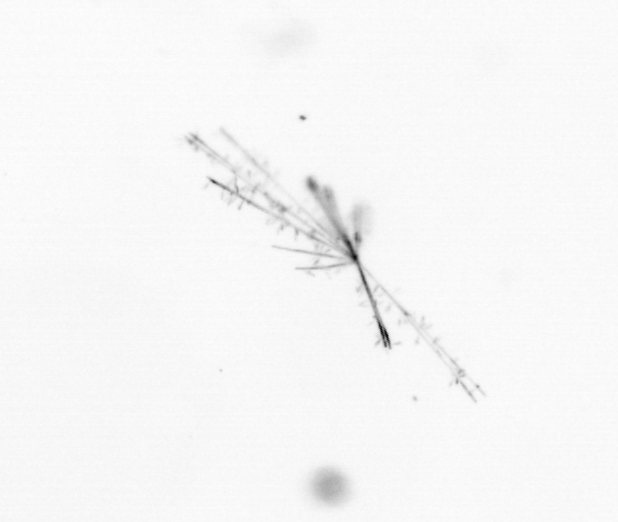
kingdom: Chromista
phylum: Ochrophyta
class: Bacillariophyceae
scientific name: Bacillariophyceae
